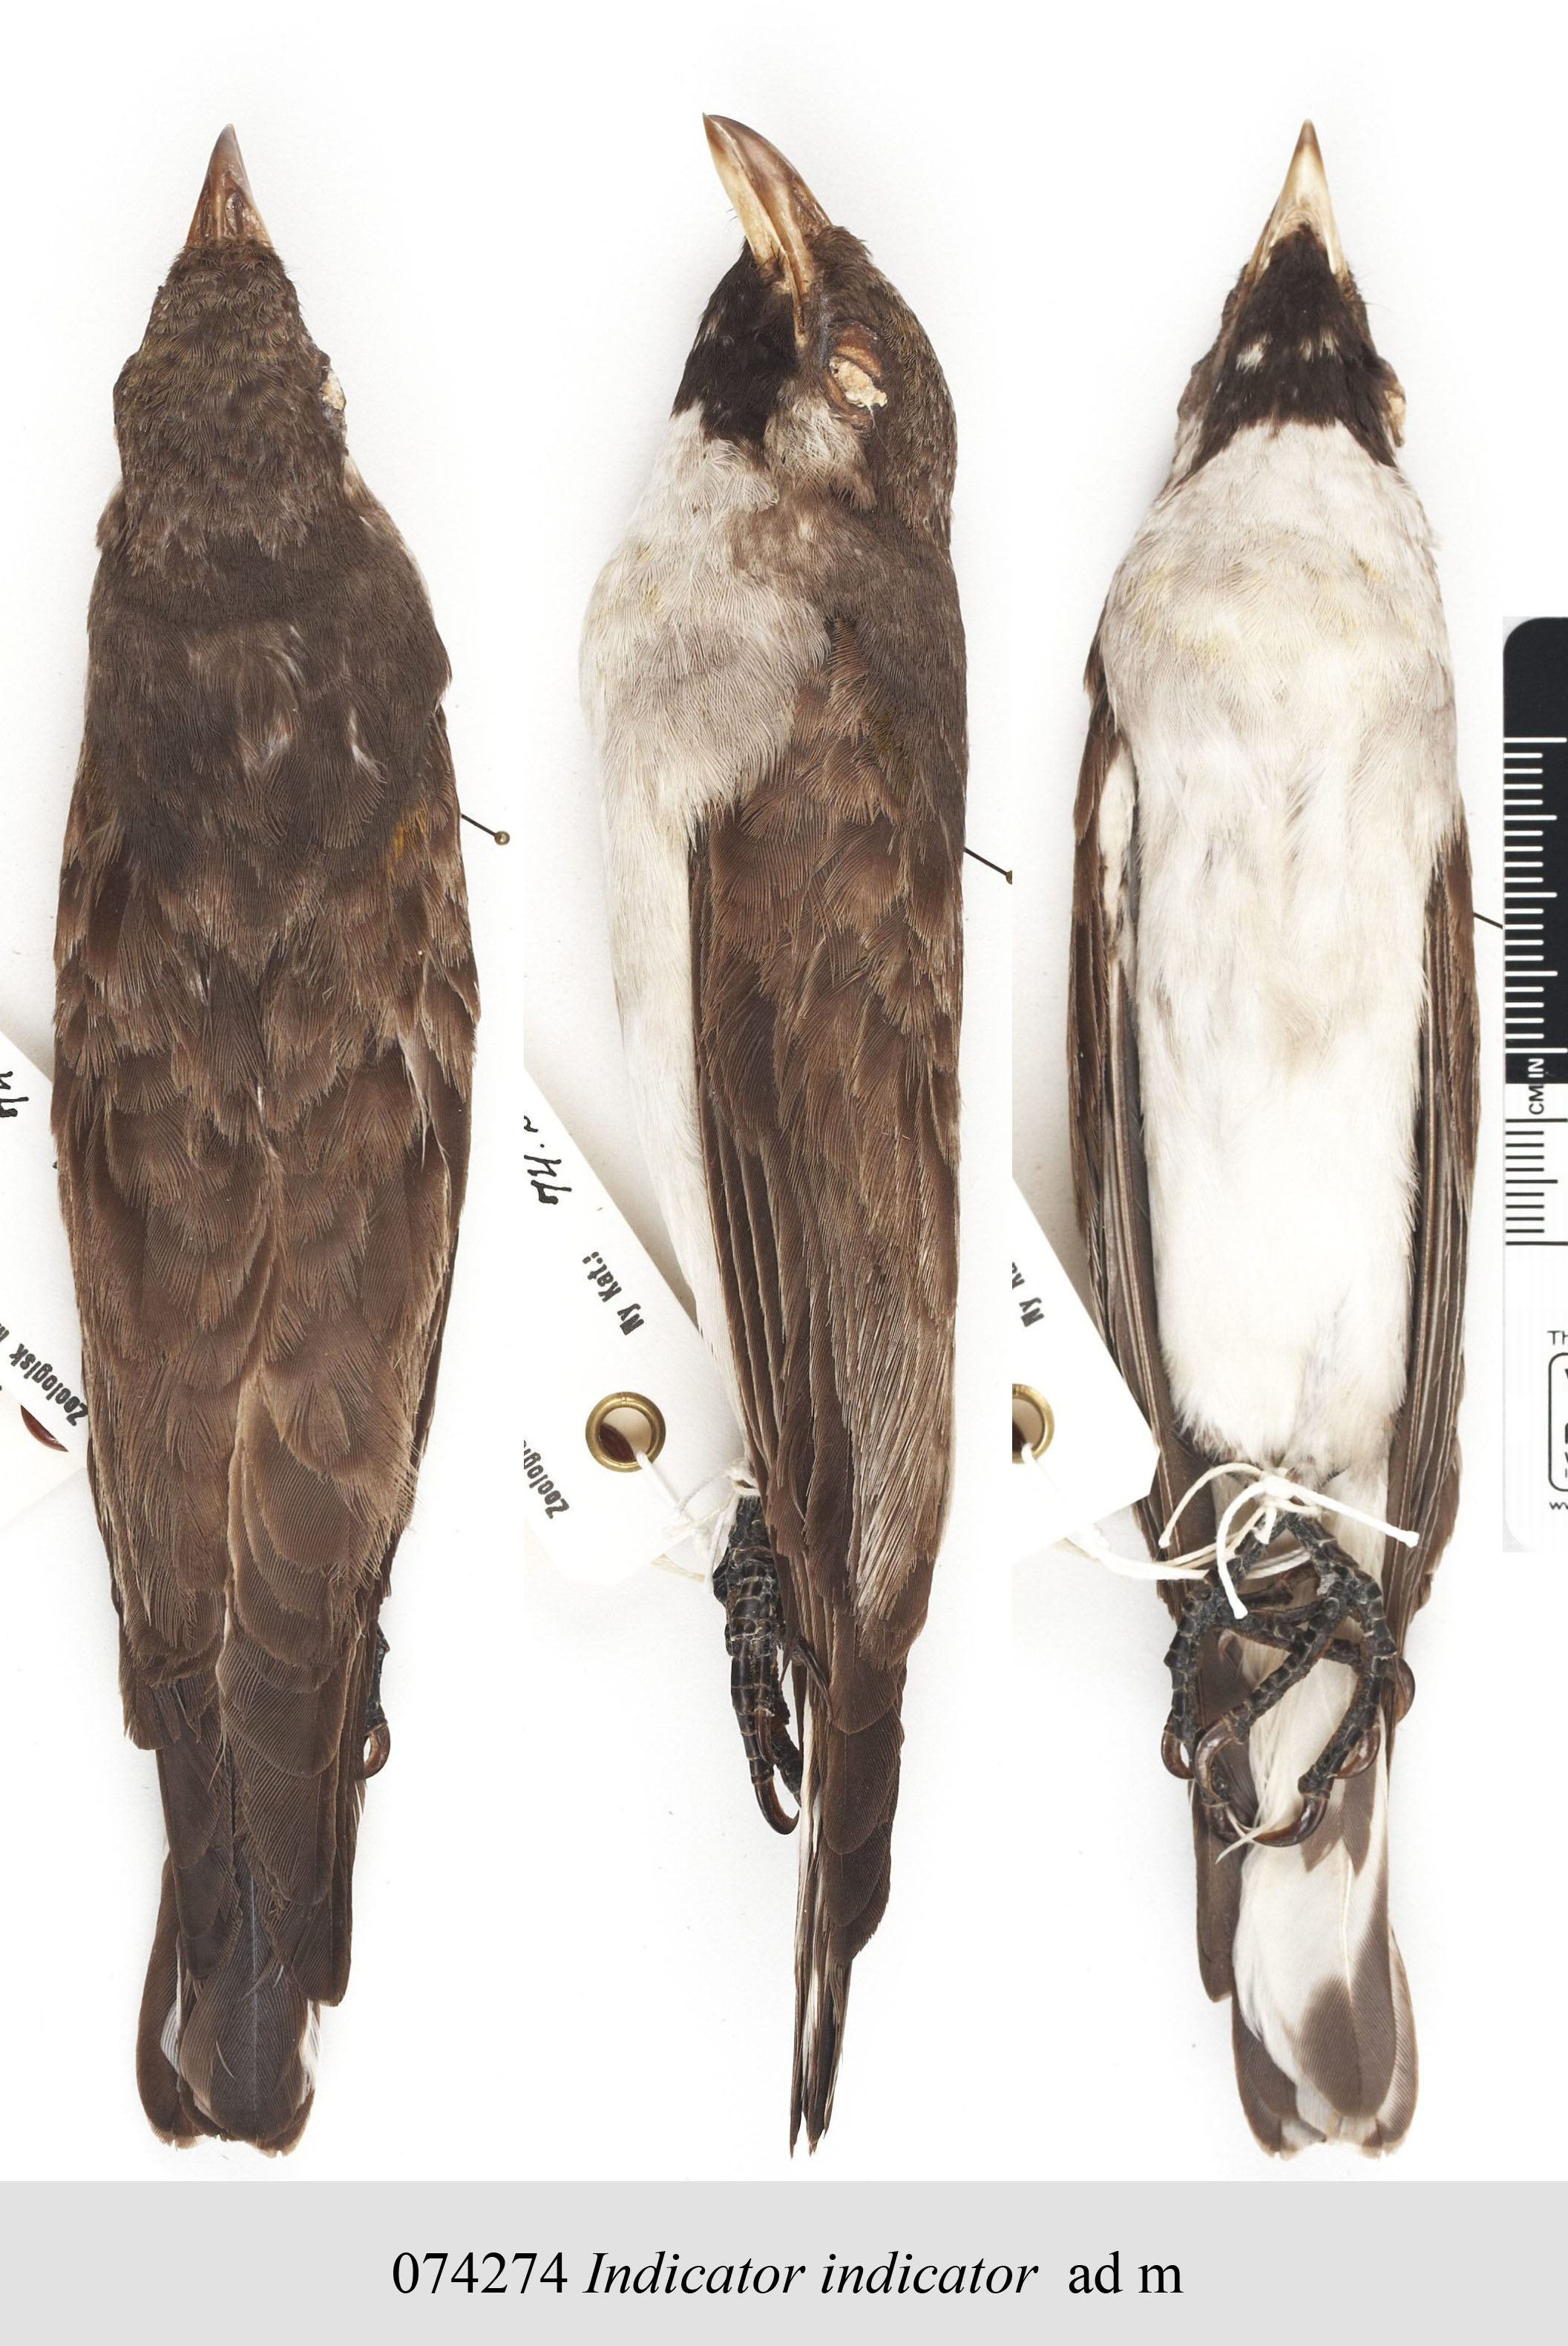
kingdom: Animalia
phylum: Chordata
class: Aves
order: Piciformes
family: Indicatoridae
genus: Indicator
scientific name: Indicator indicator
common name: Greater honeyguide
